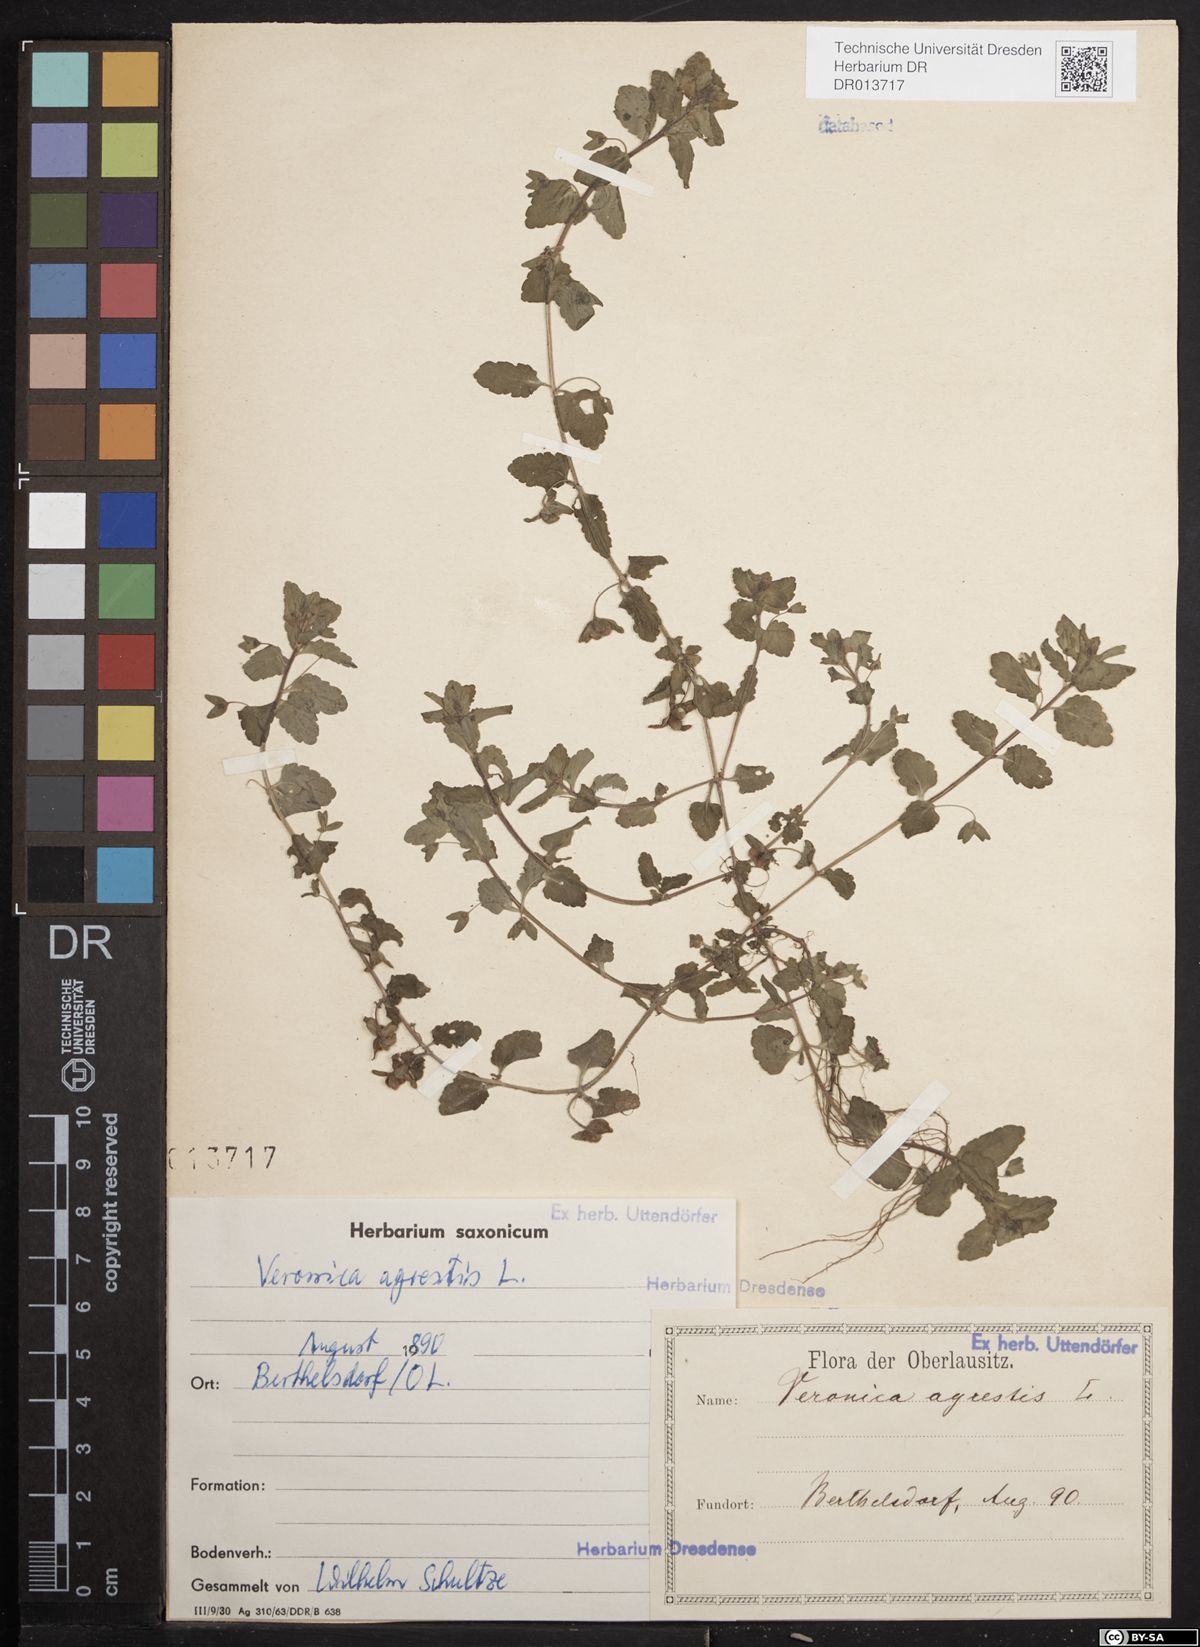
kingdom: Plantae
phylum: Tracheophyta
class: Magnoliopsida
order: Lamiales
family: Plantaginaceae
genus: Veronica
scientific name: Veronica agrestis
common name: Green field-speedwell
